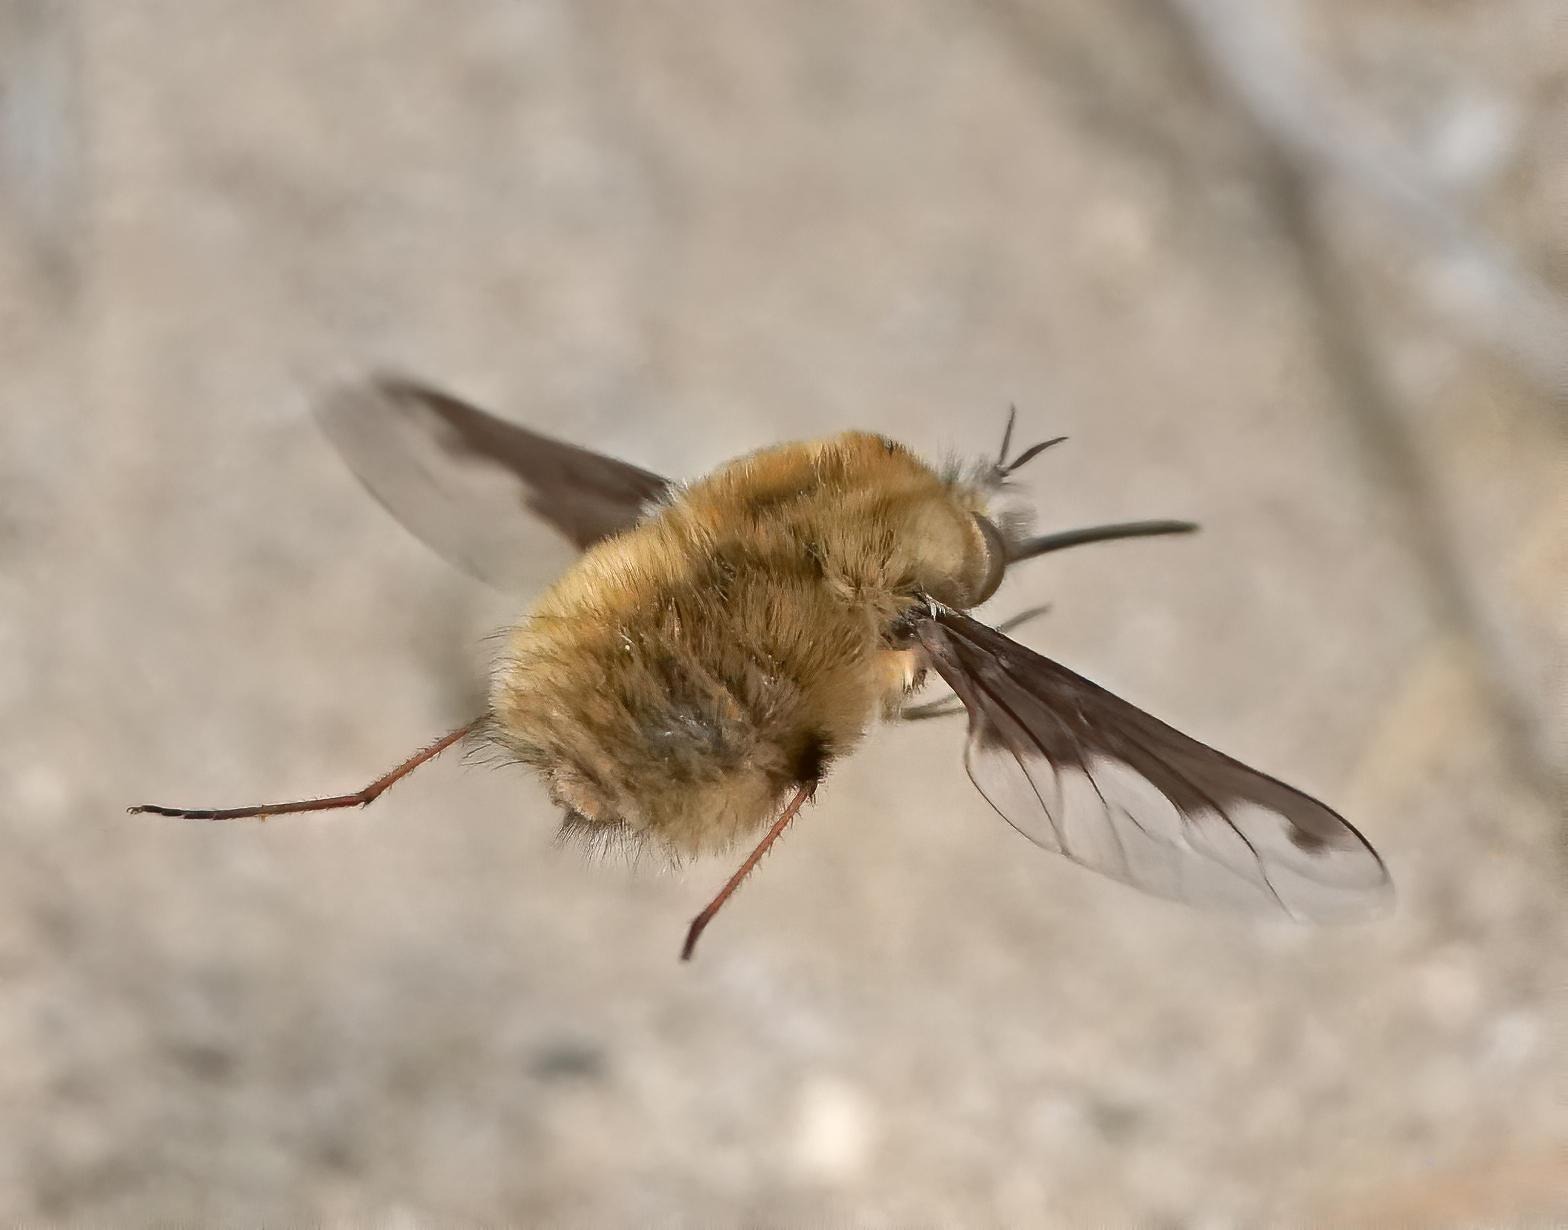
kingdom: Animalia
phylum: Arthropoda
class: Insecta
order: Diptera
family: Bombyliidae
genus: Bombylius
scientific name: Bombylius major
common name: Stor humleflue
